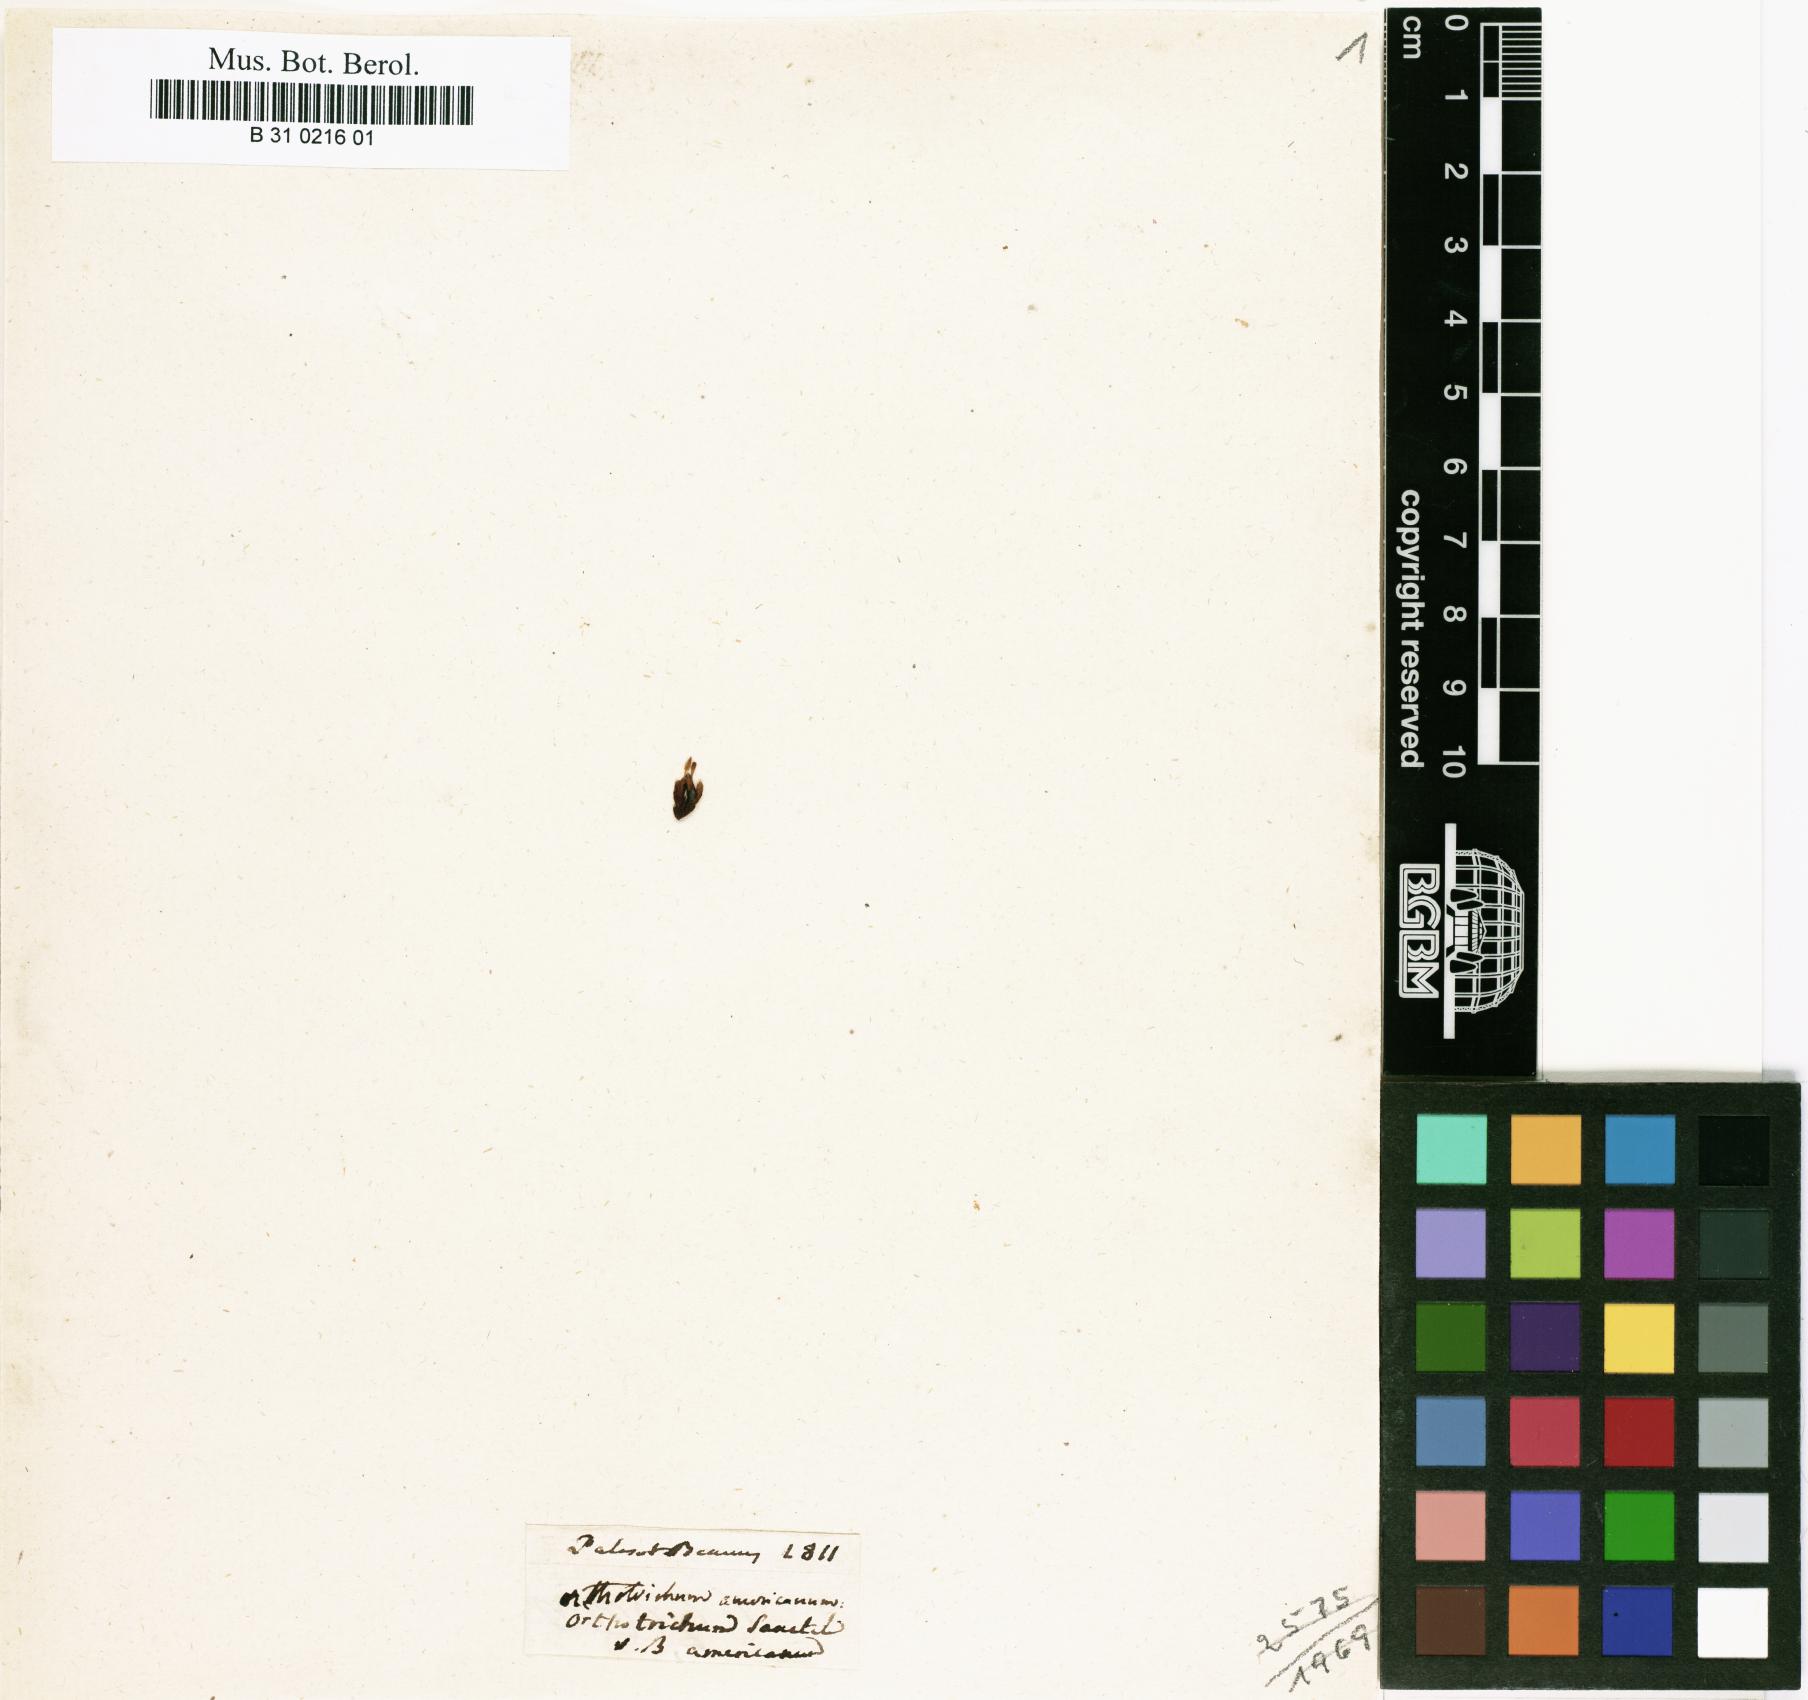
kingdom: Plantae
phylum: Bryophyta
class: Bryopsida
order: Orthotrichales
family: Orthotrichaceae
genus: Ulota
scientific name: Ulota hutchinsiae
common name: Hutchins' pincushion
